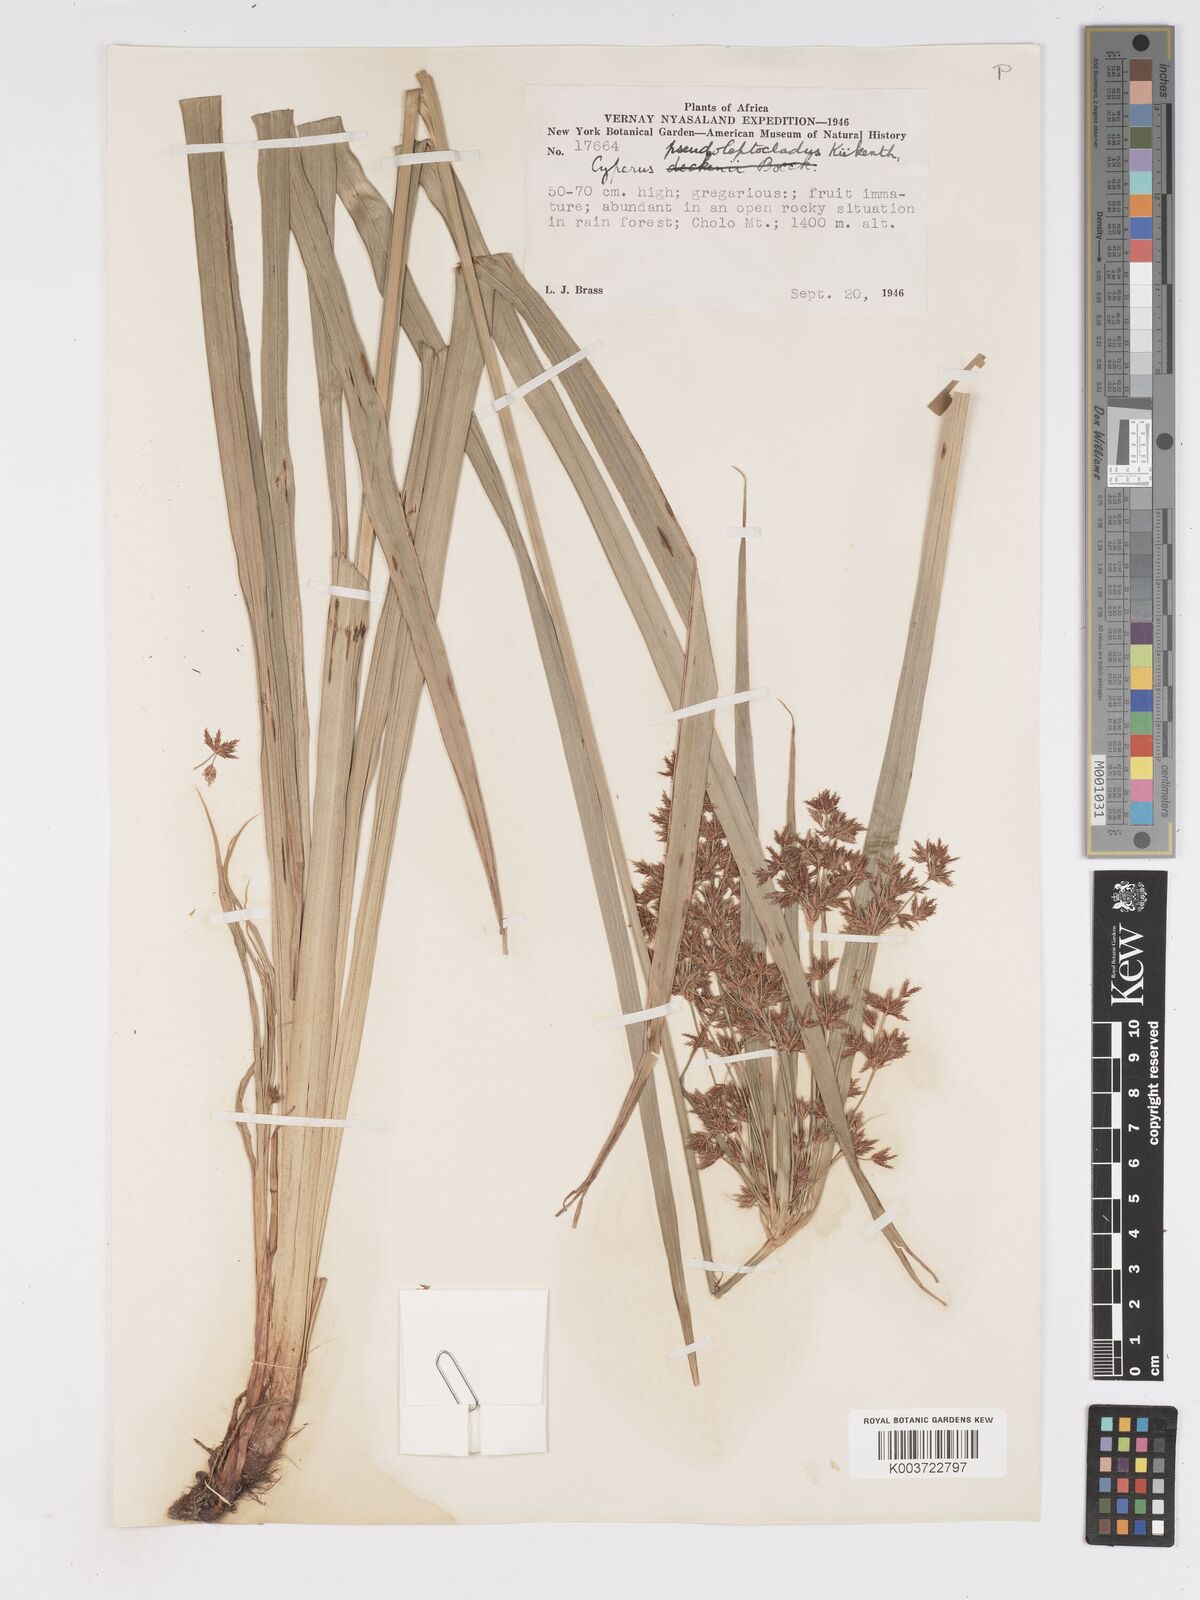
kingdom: Plantae
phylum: Tracheophyta
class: Liliopsida
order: Poales
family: Cyperaceae
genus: Cyperus
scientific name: Cyperus glaucophyllus
